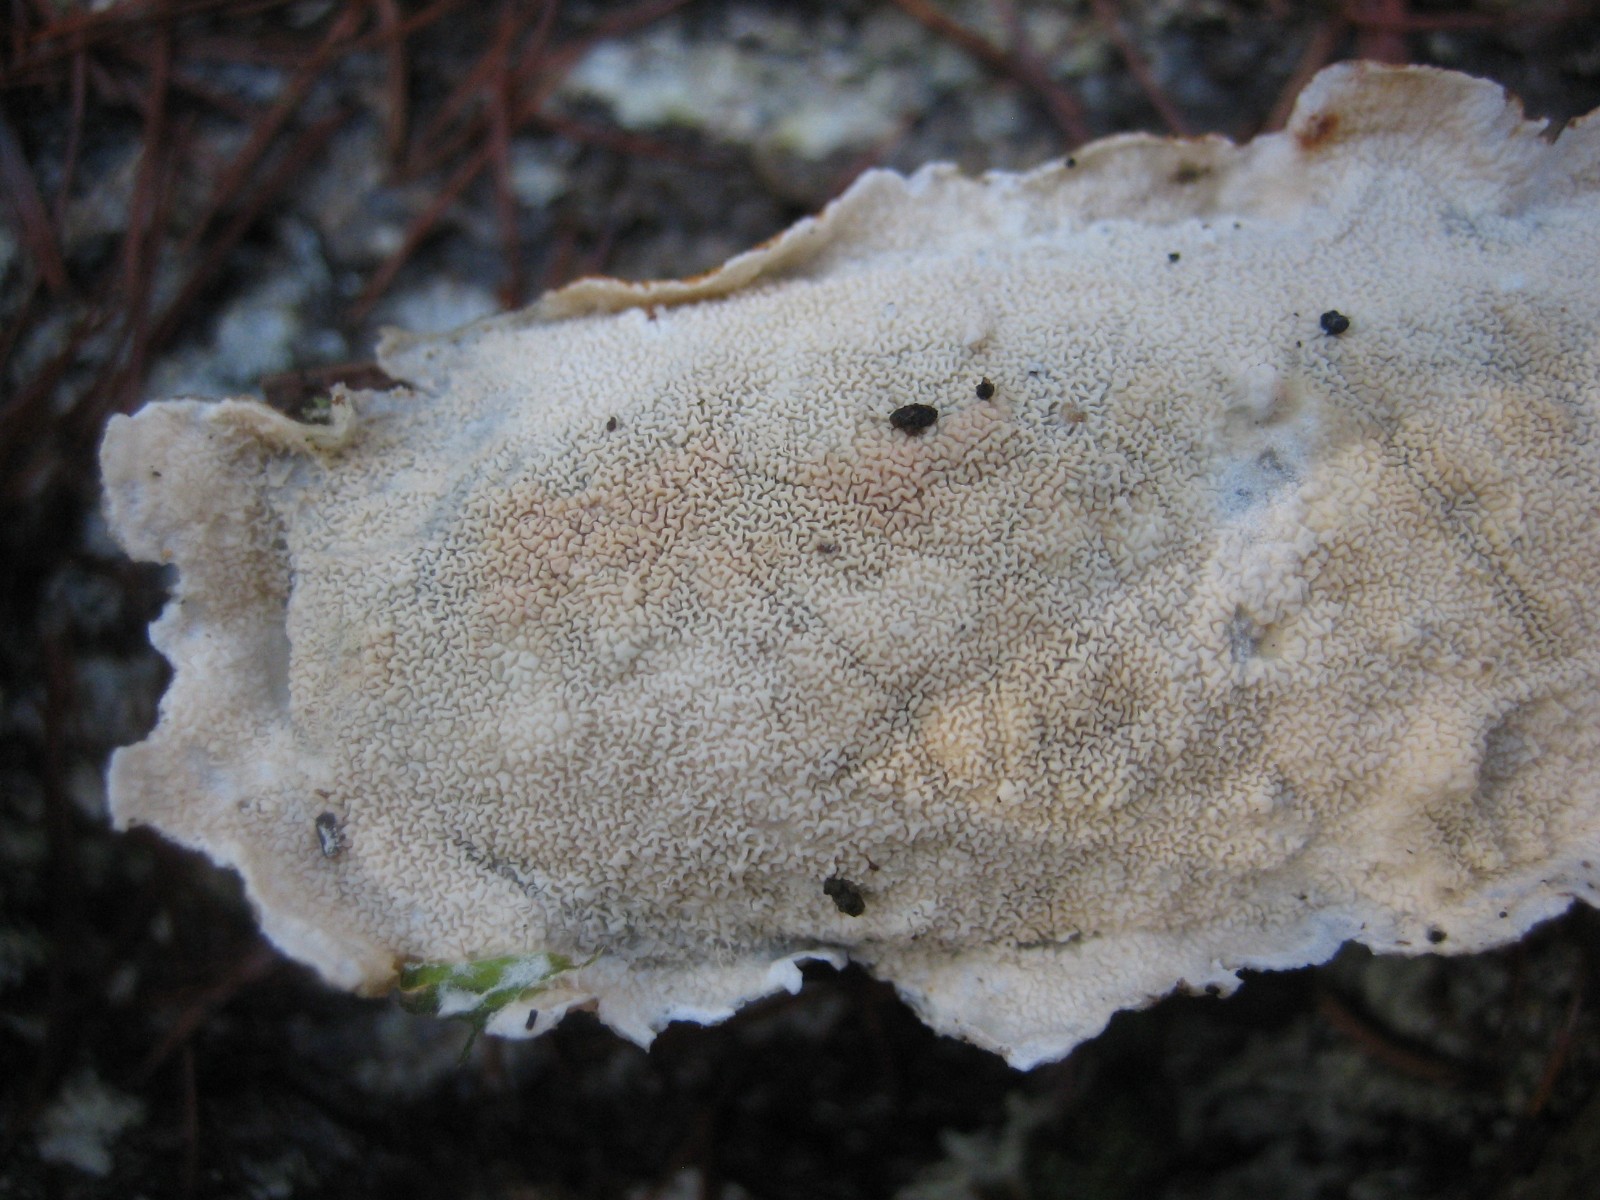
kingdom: Fungi
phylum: Basidiomycota
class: Agaricomycetes
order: Polyporales
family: Irpicaceae
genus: Byssomerulius
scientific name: Byssomerulius corium
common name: læder-åresvamp
